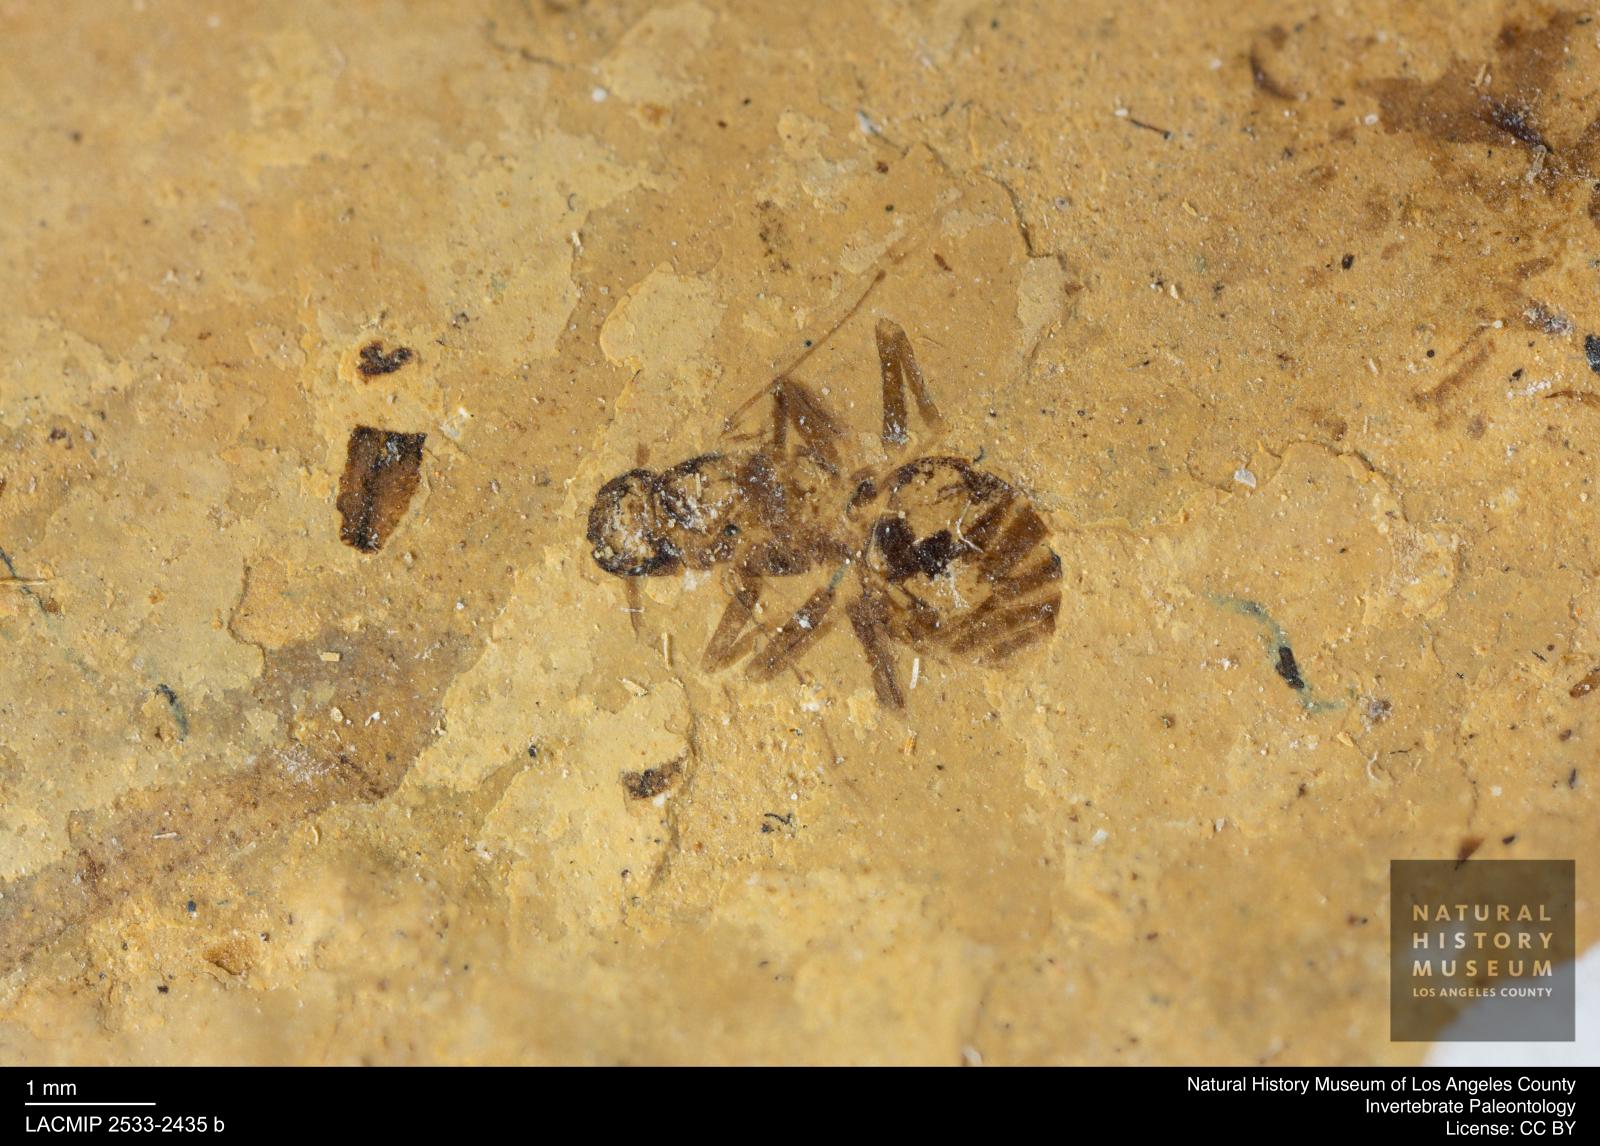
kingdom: Animalia
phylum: Arthropoda
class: Insecta
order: Hymenoptera
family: Formicidae
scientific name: Formicidae
